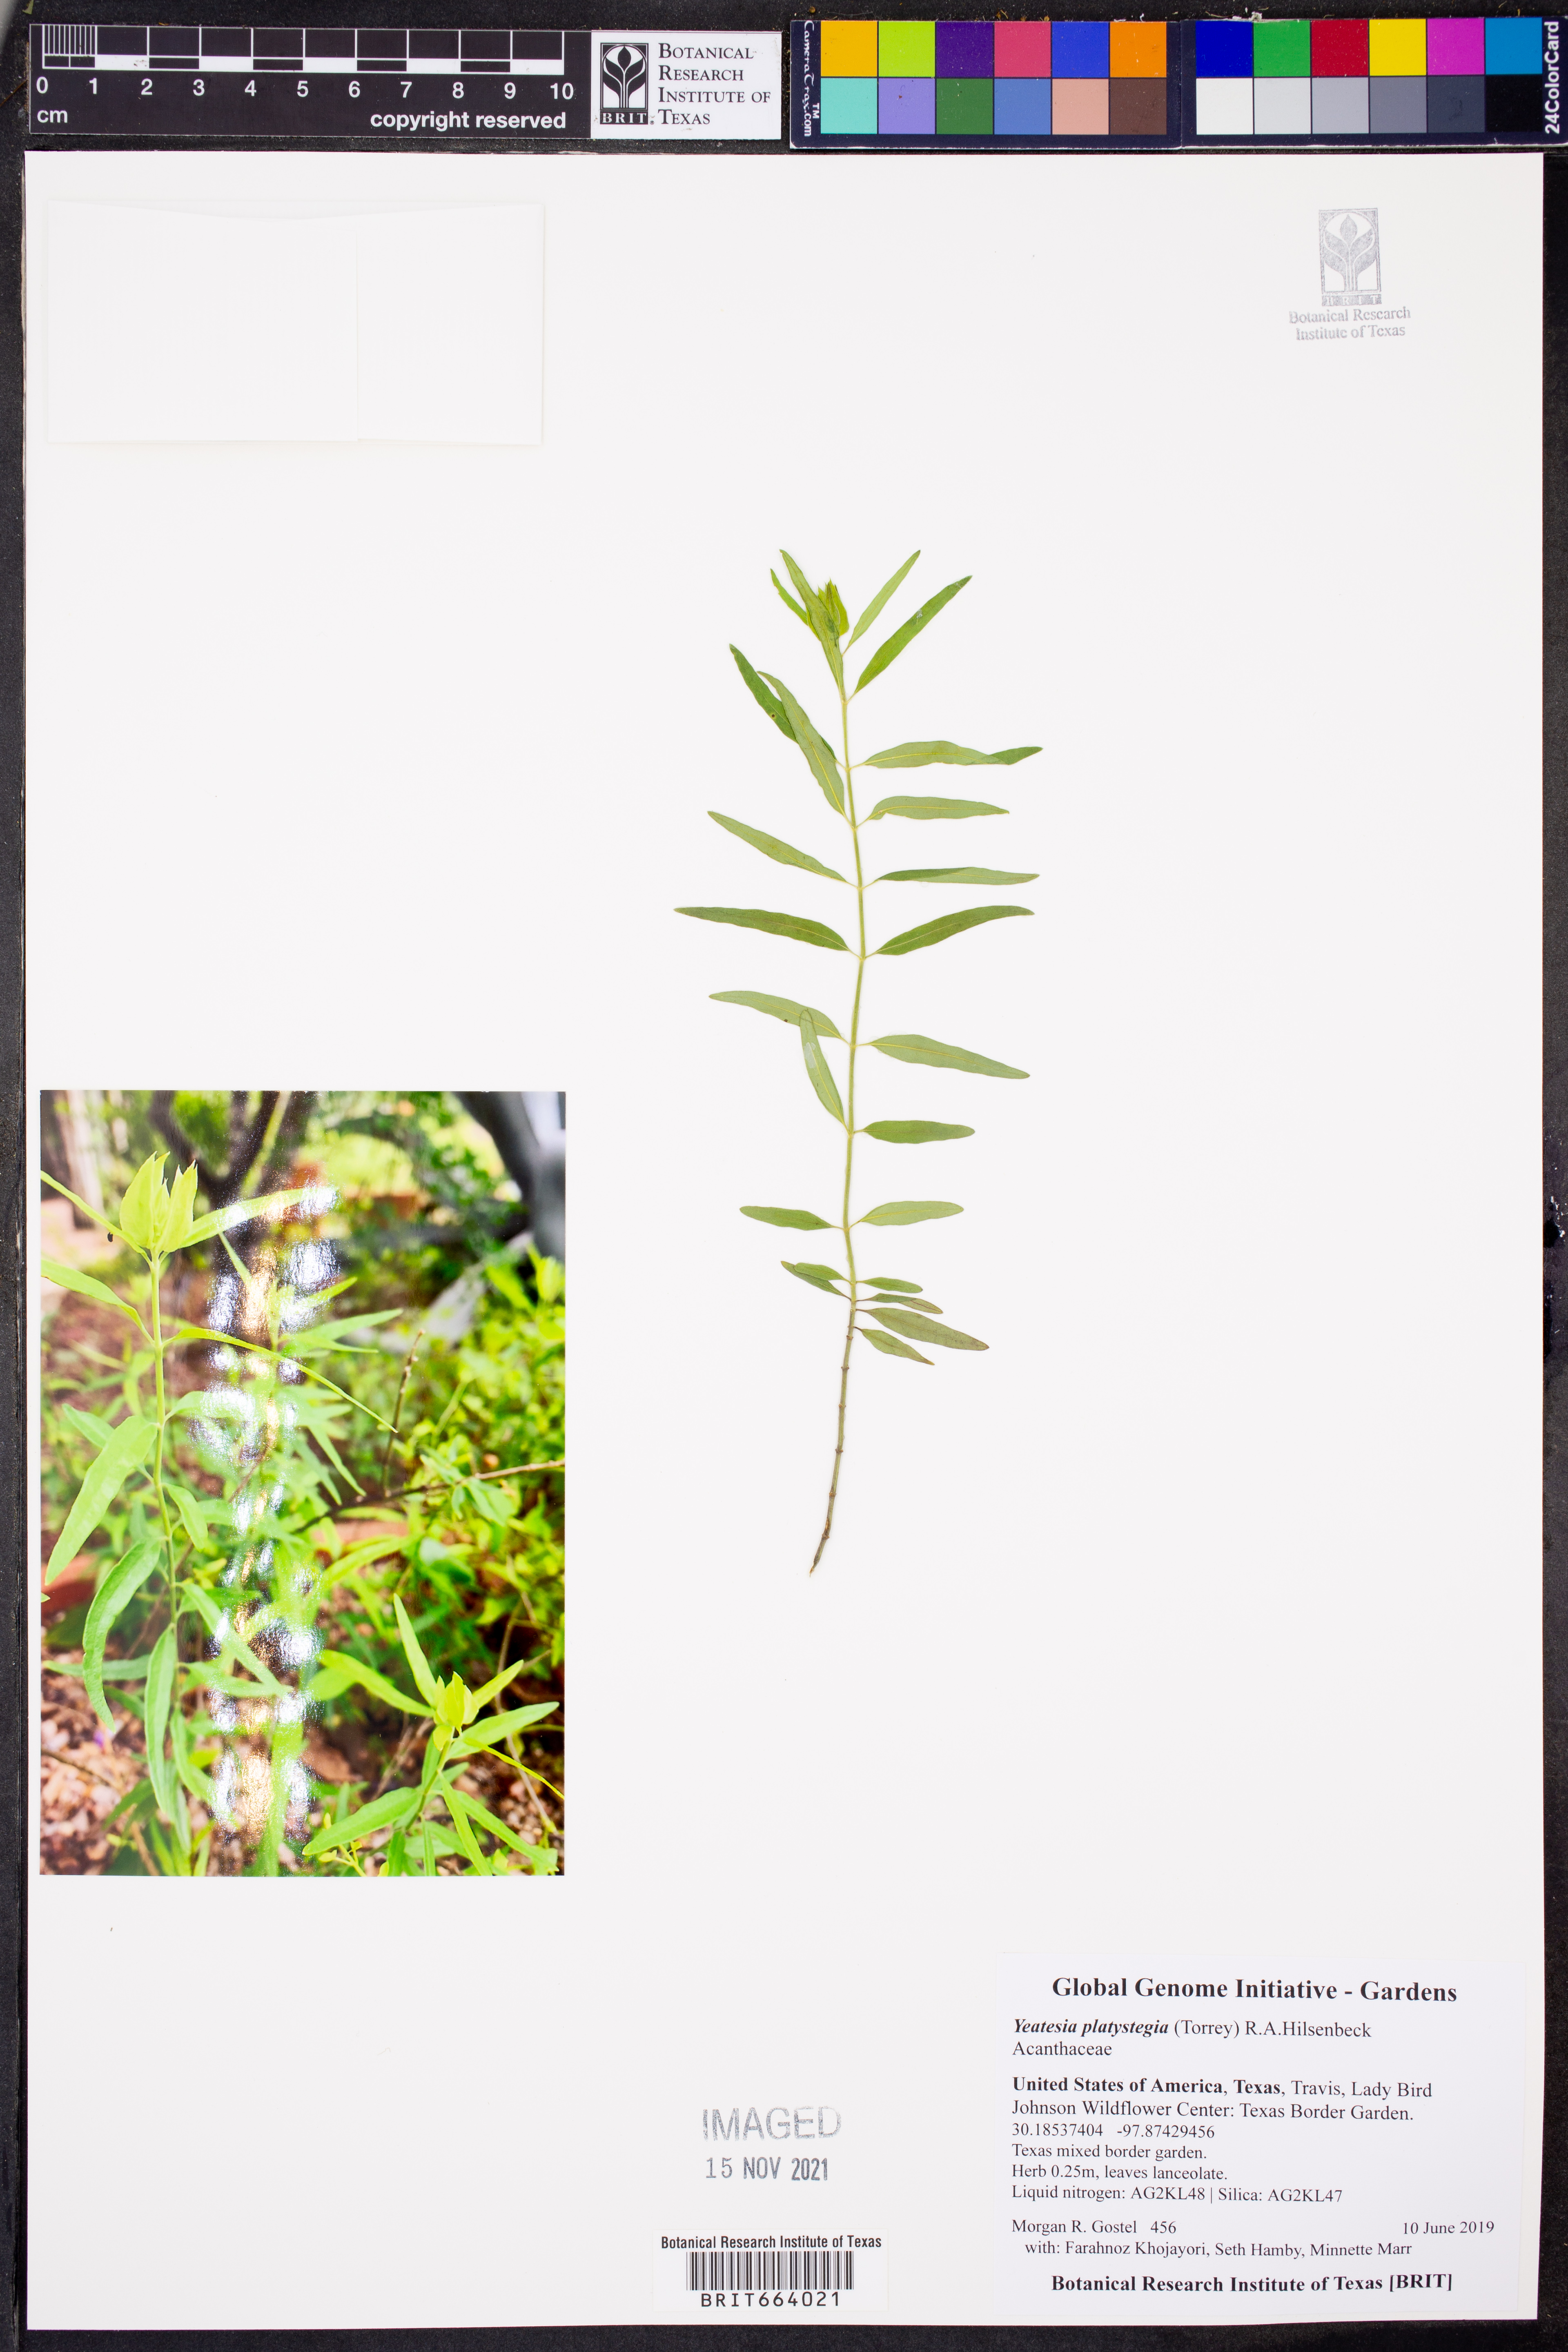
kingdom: Plantae
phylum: Tracheophyta
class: Magnoliopsida
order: Lamiales
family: Acanthaceae
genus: Yeatesia
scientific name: Yeatesia platystegia
